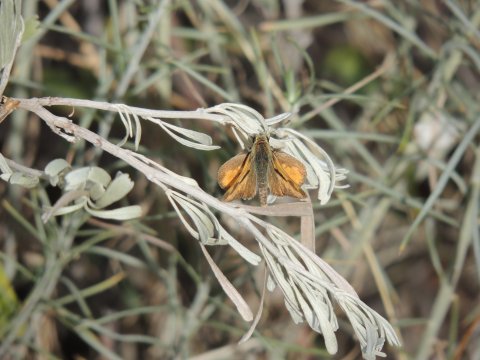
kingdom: Animalia
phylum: Arthropoda
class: Insecta
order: Lepidoptera
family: Hesperiidae
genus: Ochlodes
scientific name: Ochlodes sylvanoides
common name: Woodland Skipper
